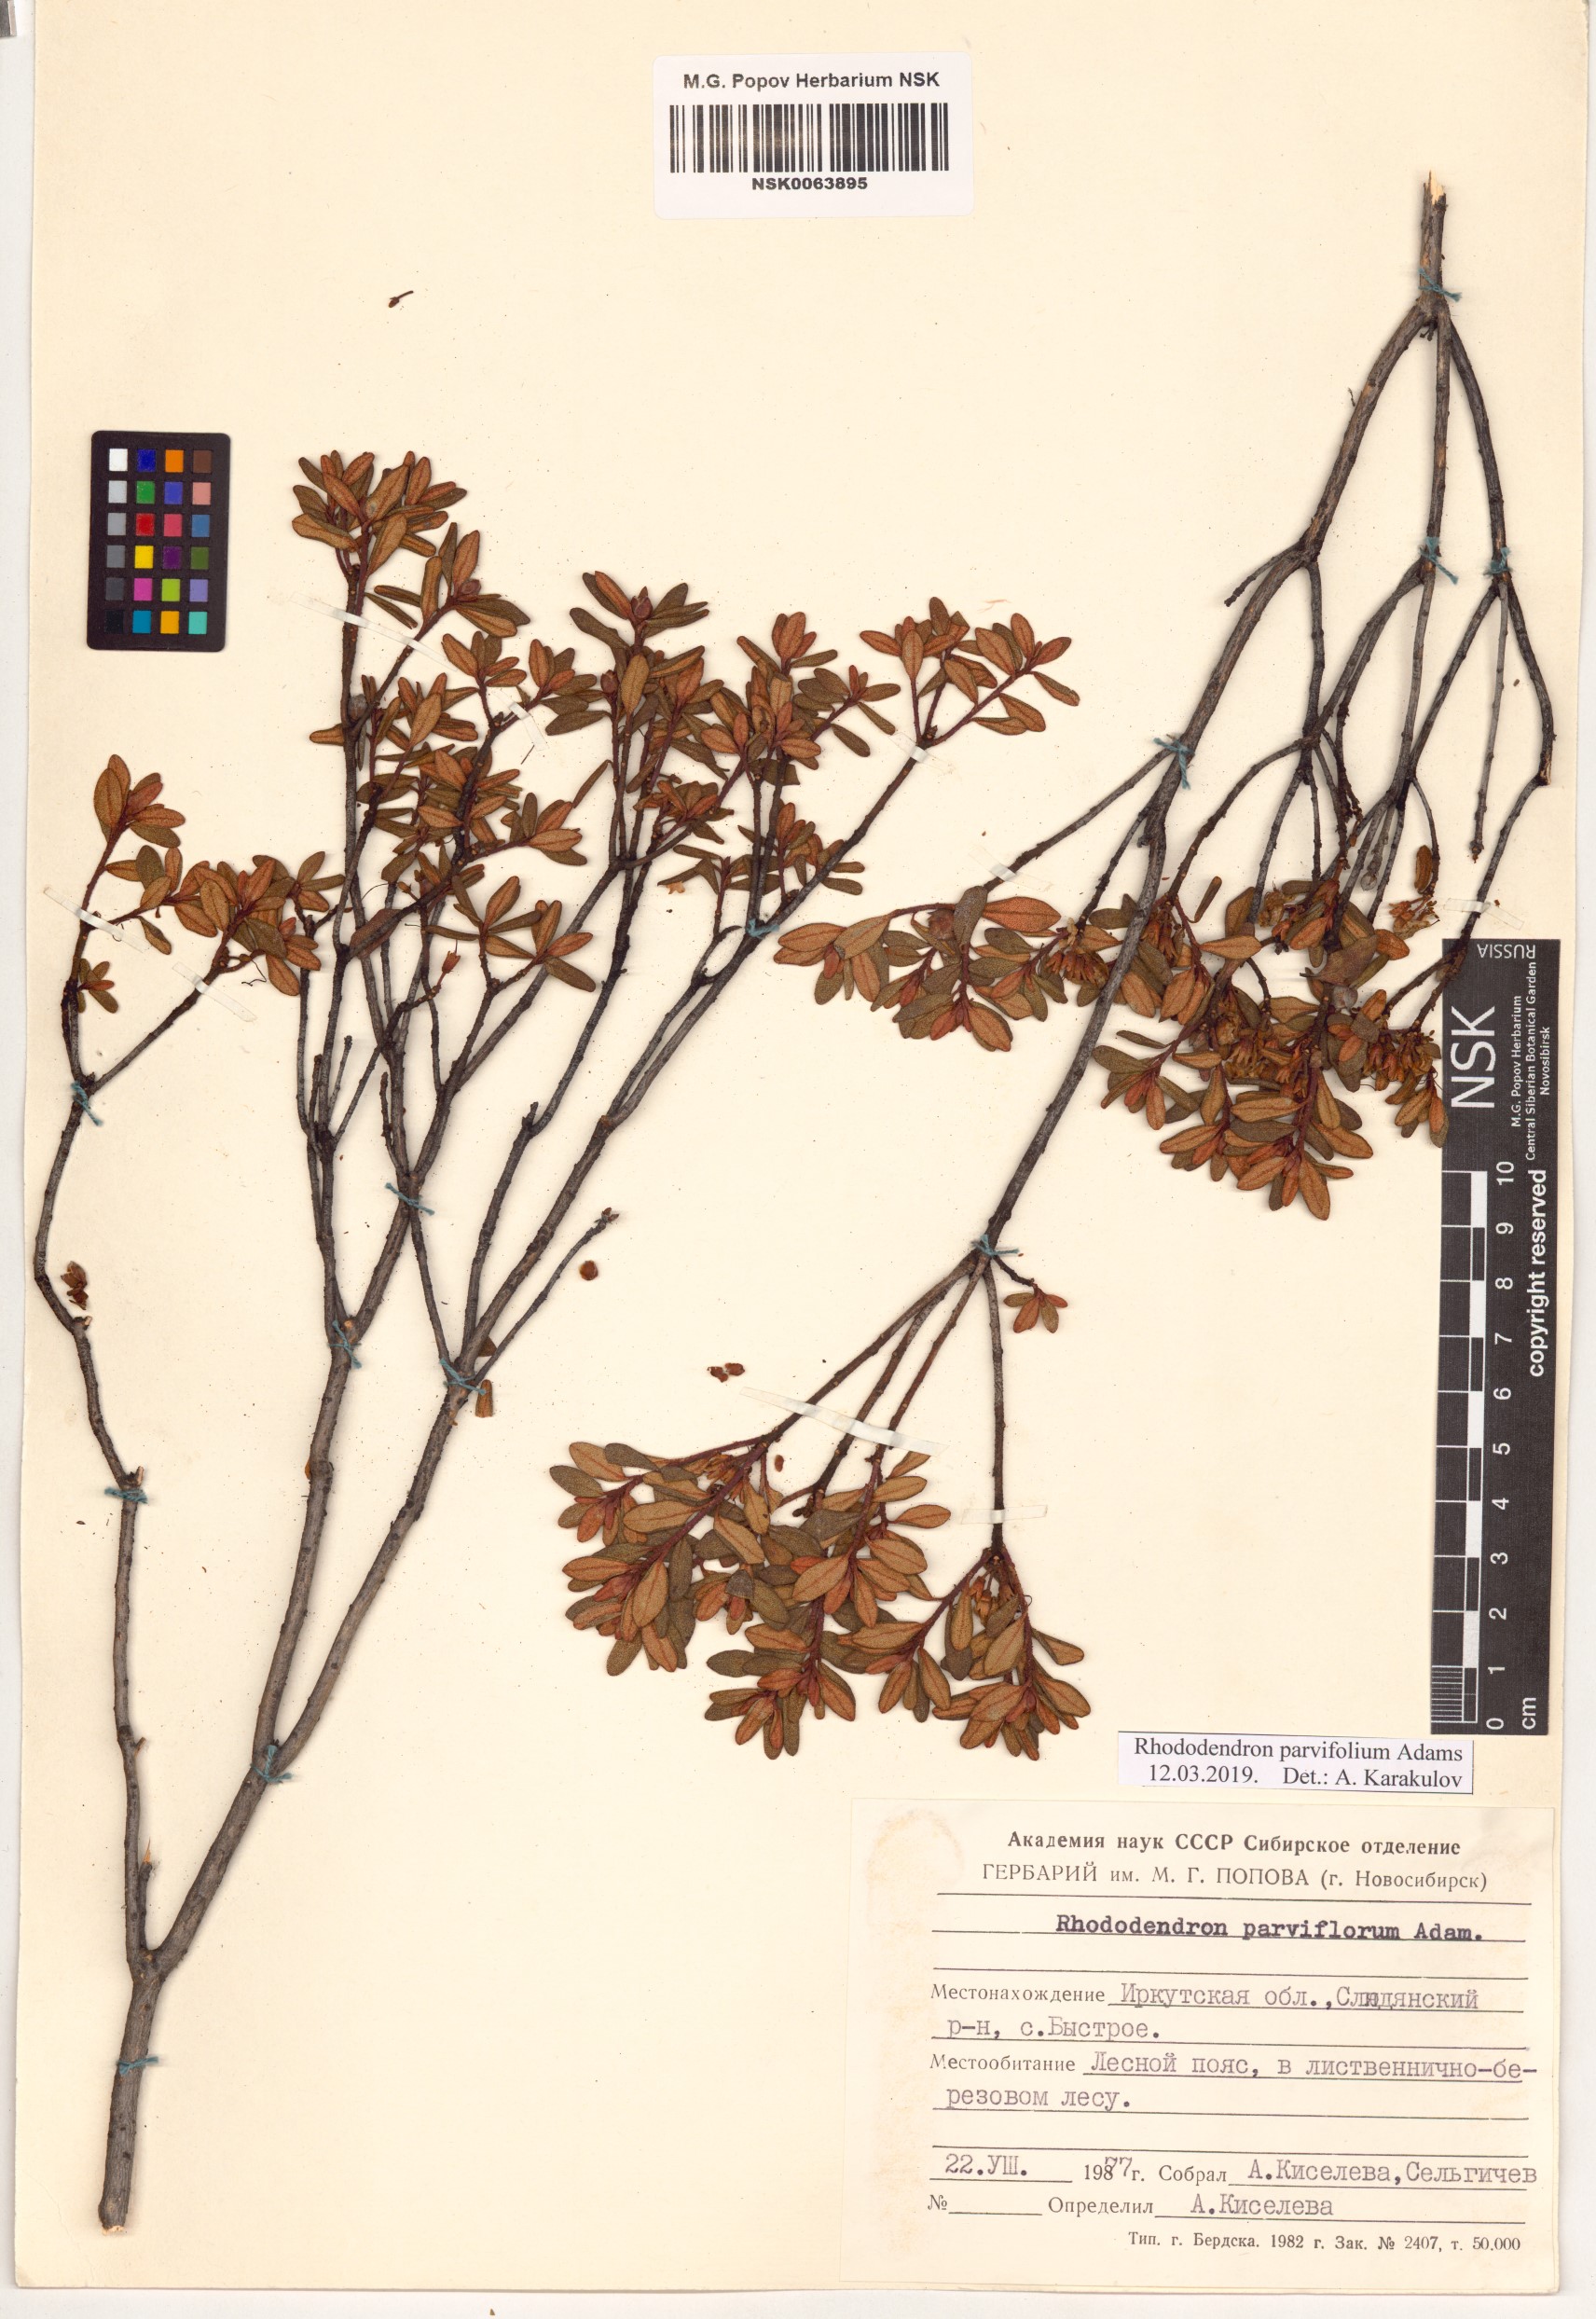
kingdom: Plantae
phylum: Tracheophyta
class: Magnoliopsida
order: Ericales
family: Ericaceae
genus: Rhododendron
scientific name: Rhododendron parvifolium
